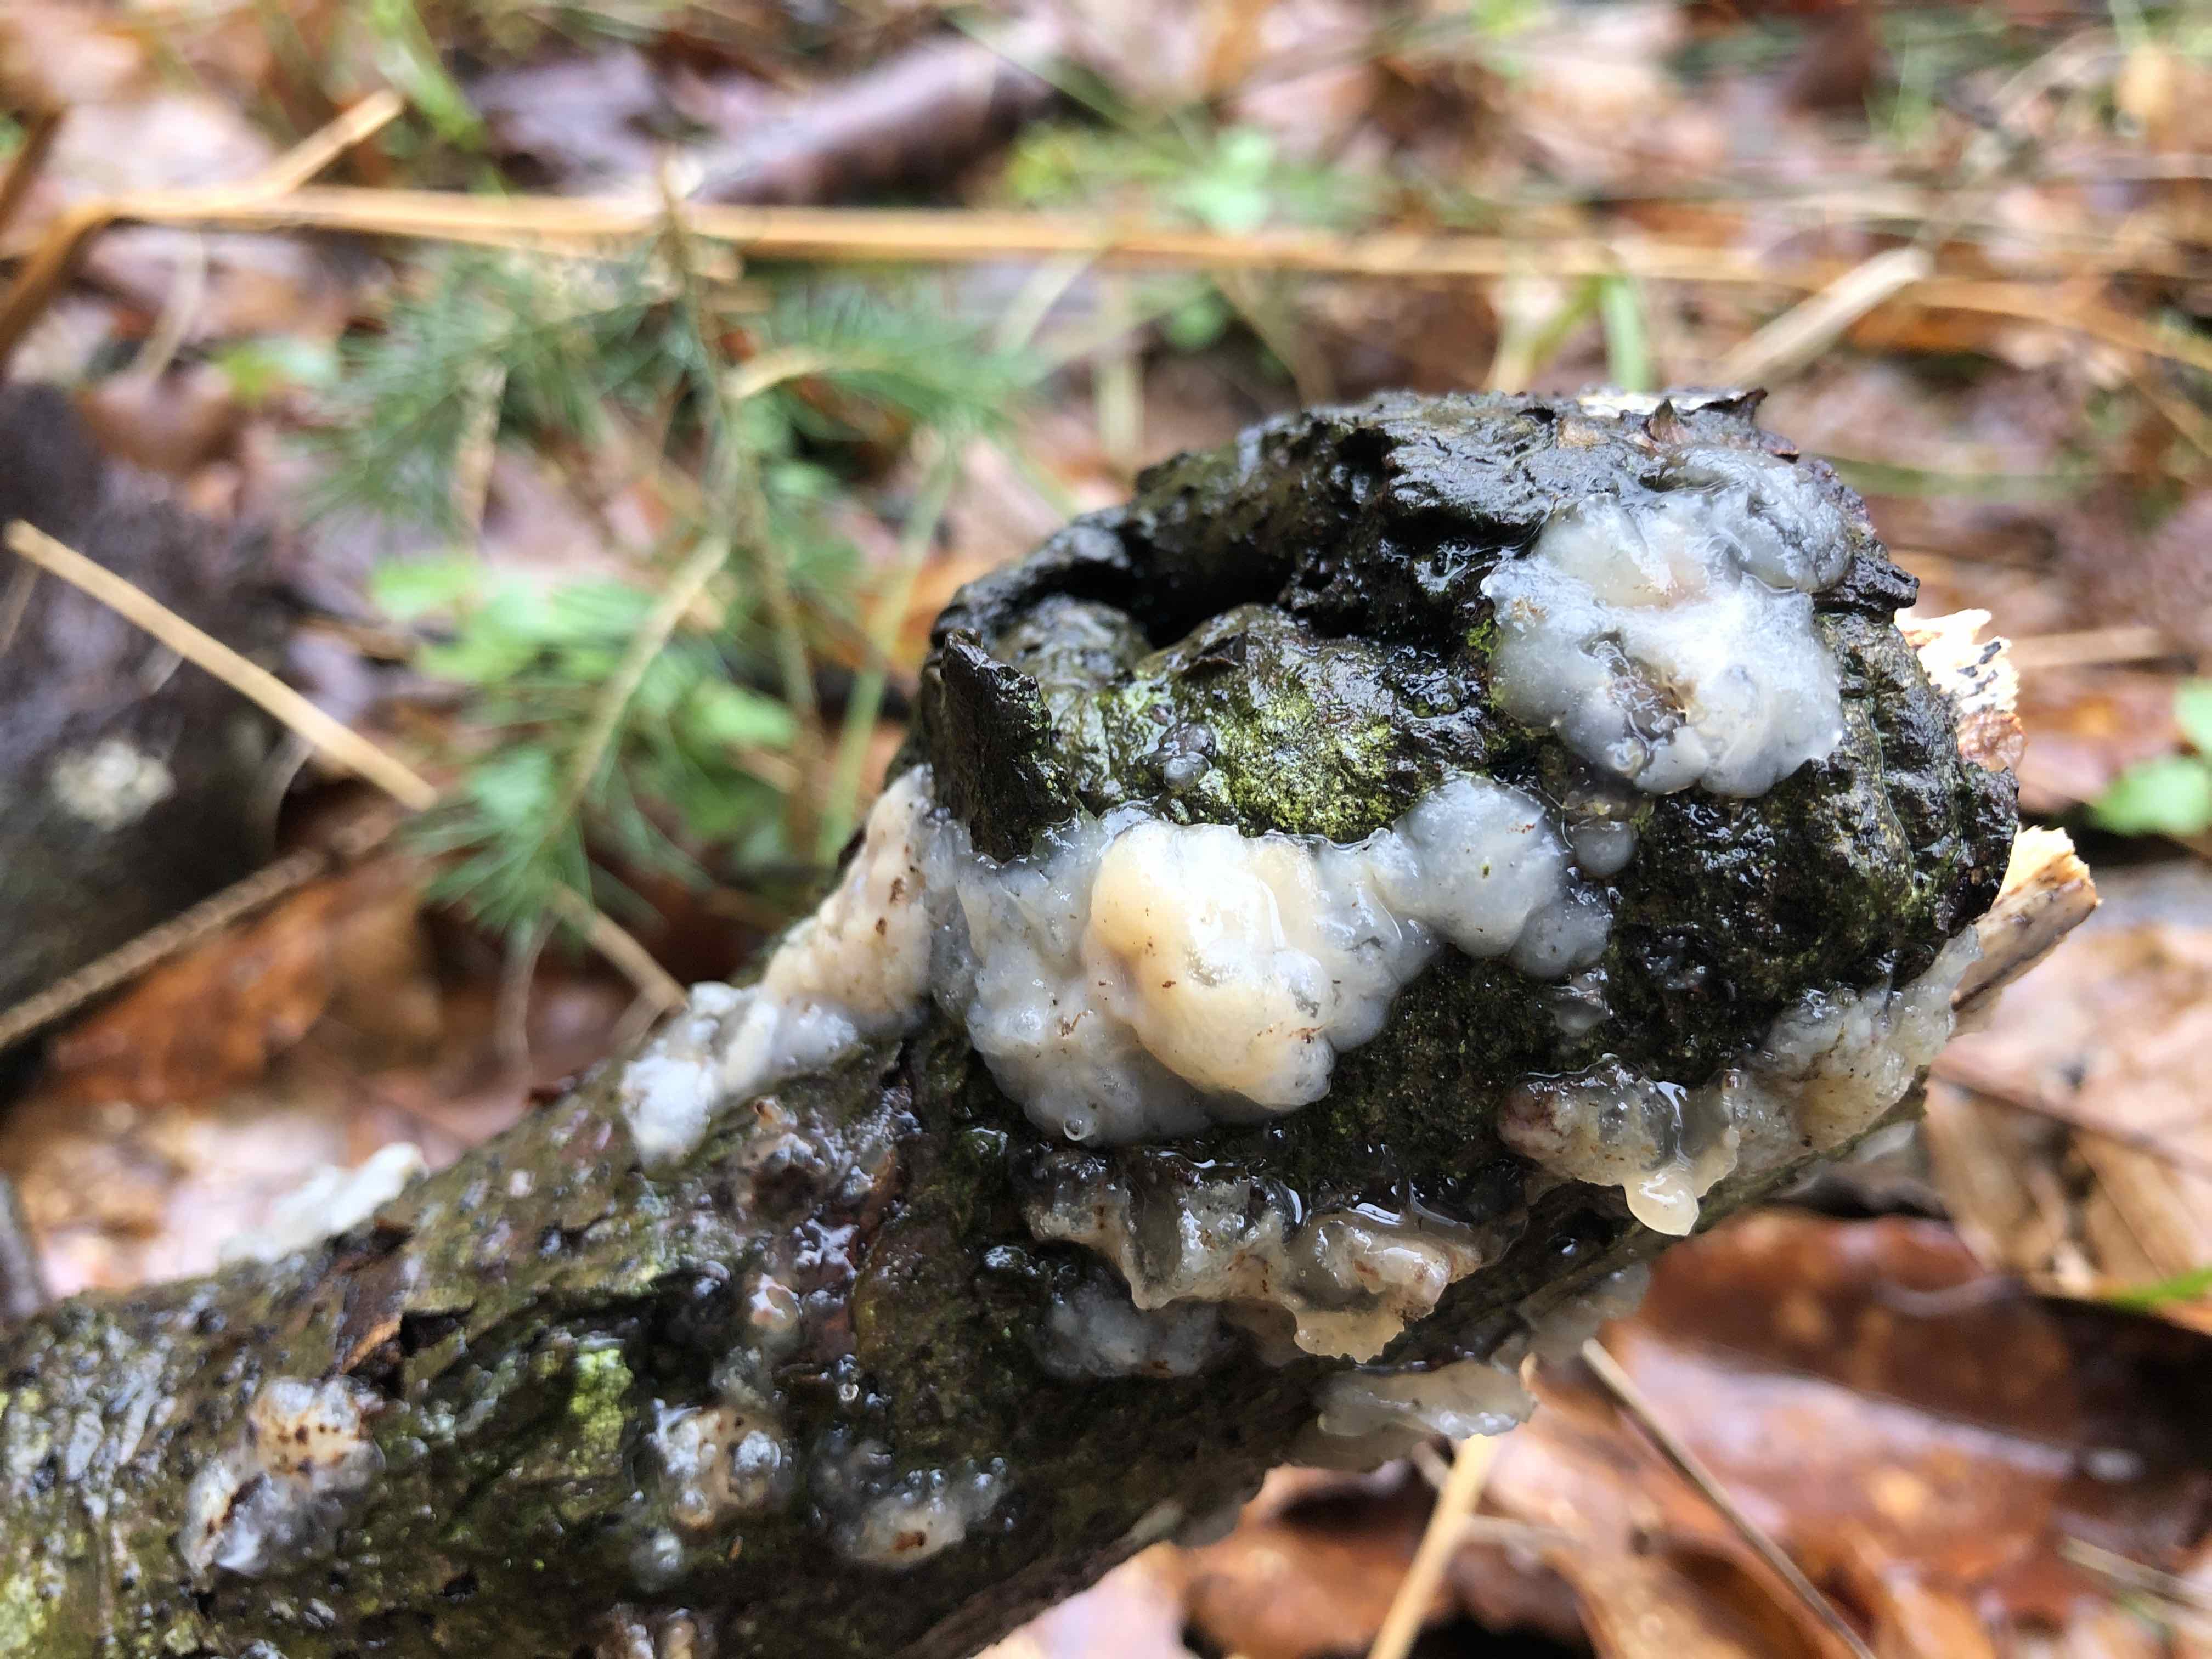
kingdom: Fungi
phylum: Basidiomycota
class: Agaricomycetes
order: Auriculariales
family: Auriculariaceae
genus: Exidia
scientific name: Exidia thuretiana
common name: hvidlig bævretop
